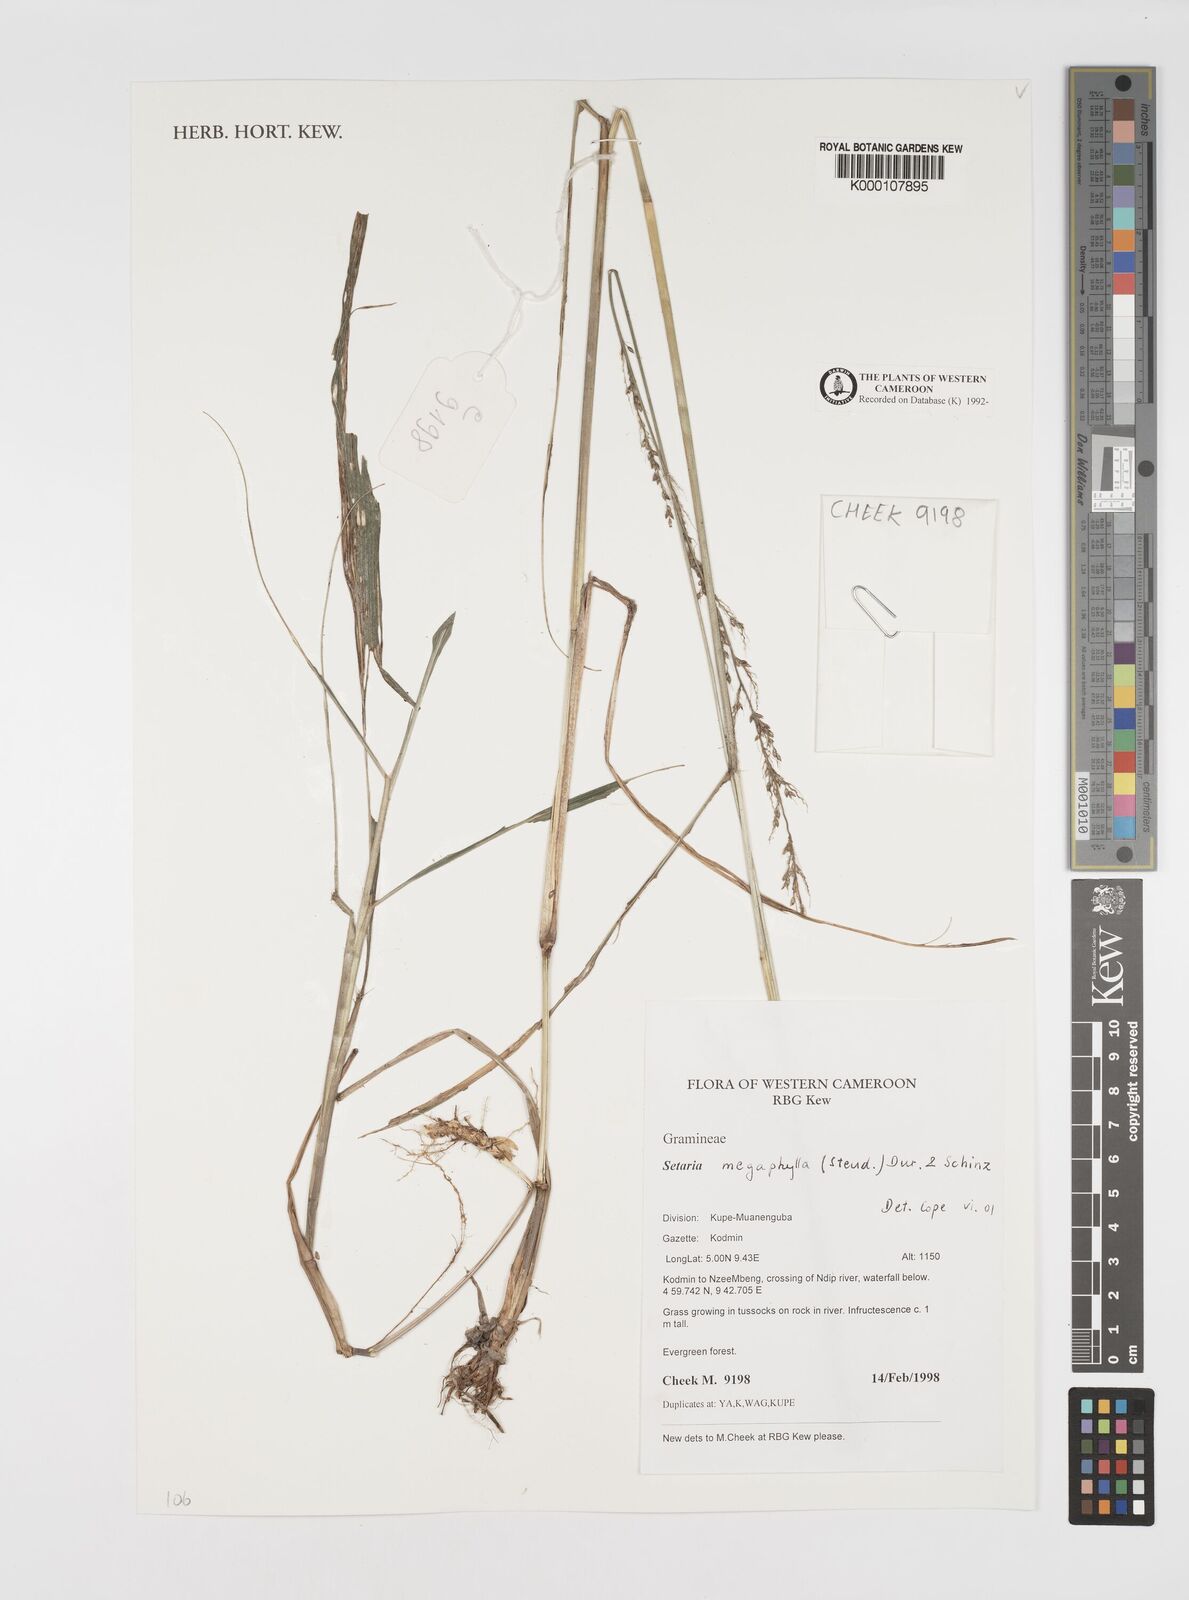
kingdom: Plantae
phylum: Tracheophyta
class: Liliopsida
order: Poales
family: Poaceae
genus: Setaria
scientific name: Setaria megaphylla
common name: Bigleaf bristlegrass
